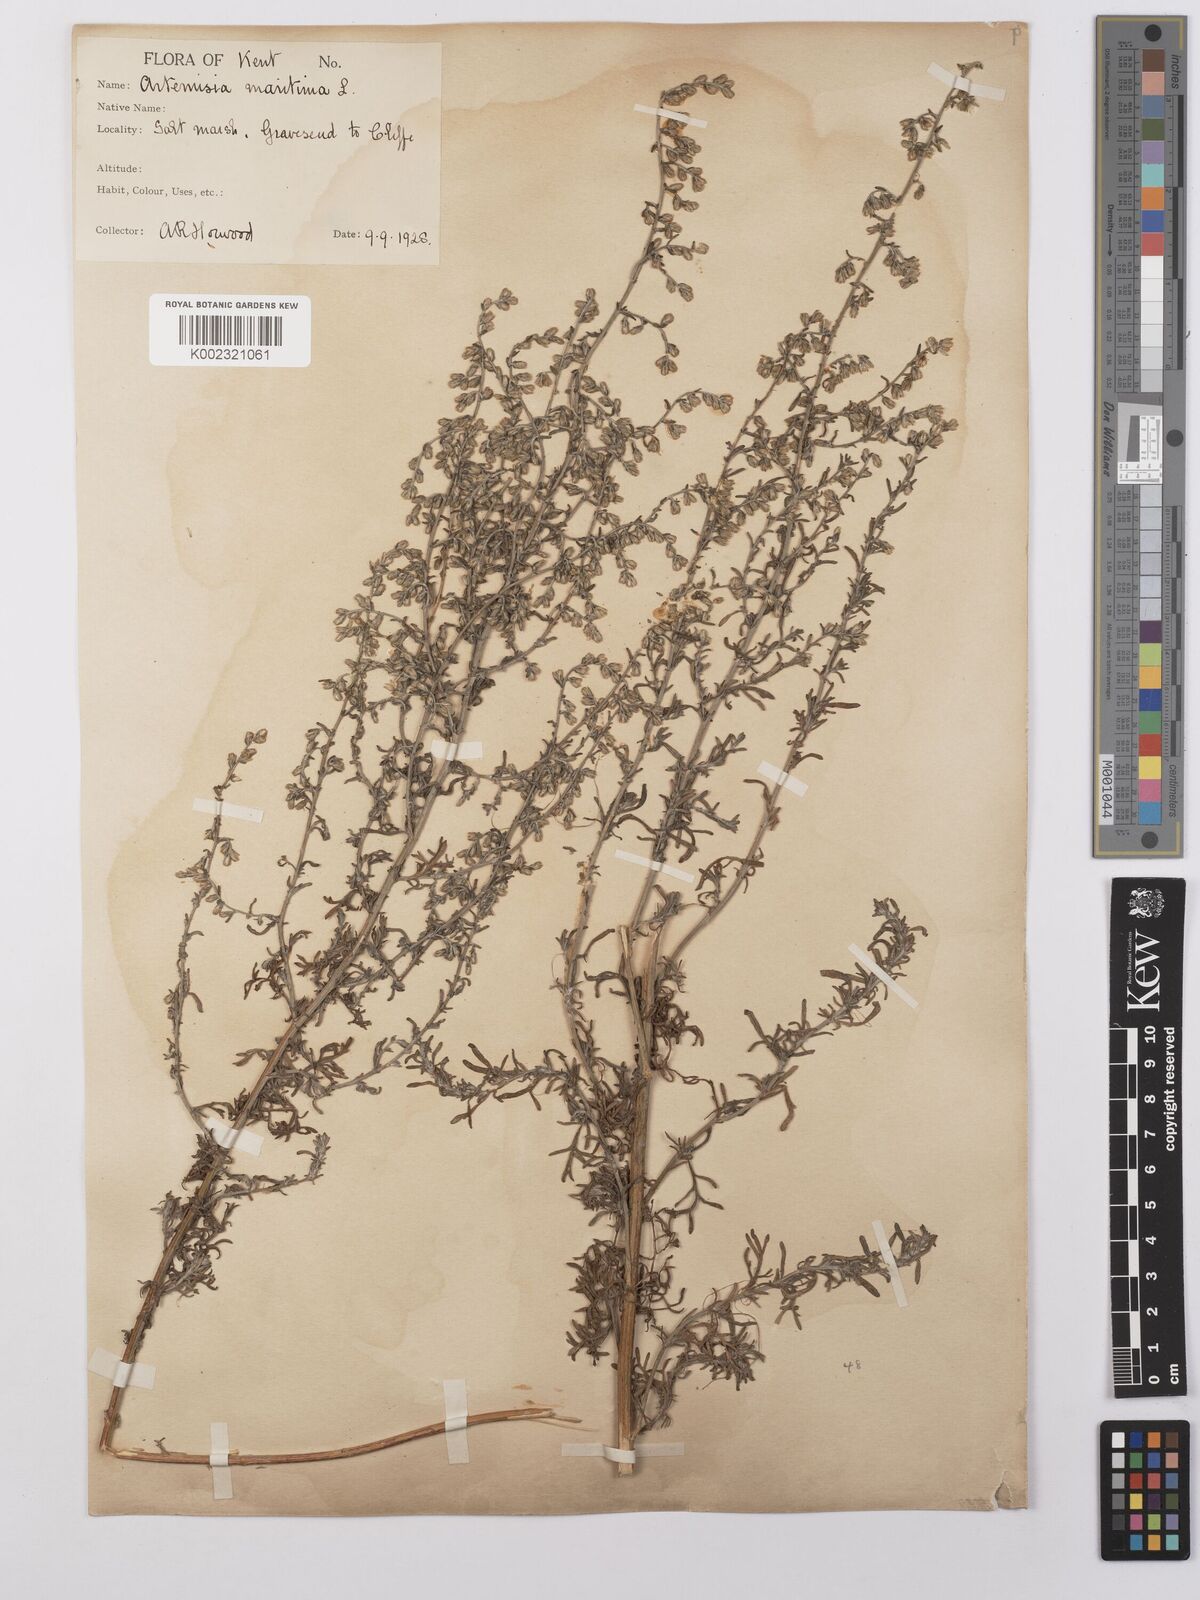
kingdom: Plantae
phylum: Tracheophyta
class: Magnoliopsida
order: Asterales
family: Asteraceae
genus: Artemisia
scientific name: Artemisia maritima
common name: Wormseed
